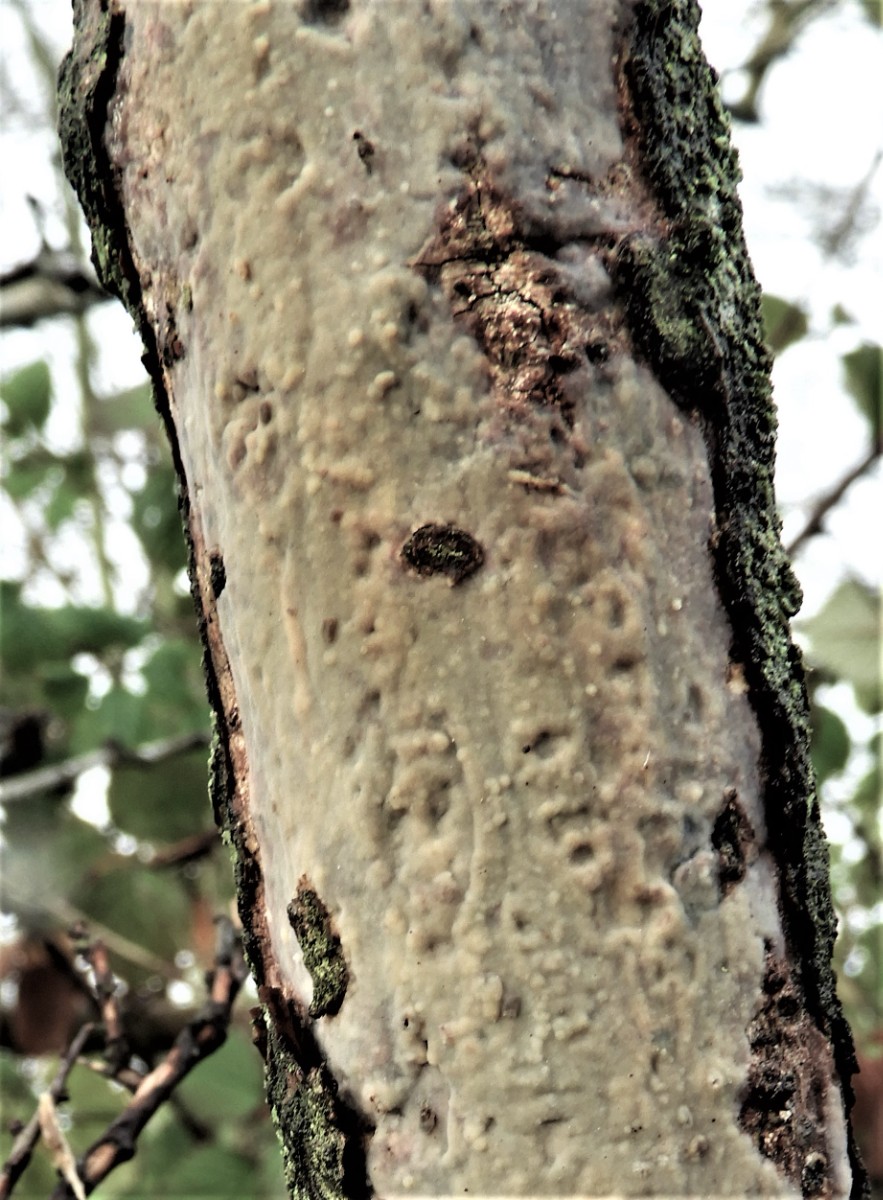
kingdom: Fungi
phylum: Basidiomycota
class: Agaricomycetes
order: Corticiales
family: Vuilleminiaceae
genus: Vuilleminia
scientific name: Vuilleminia cystidiata
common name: tjørne-barksprænger
